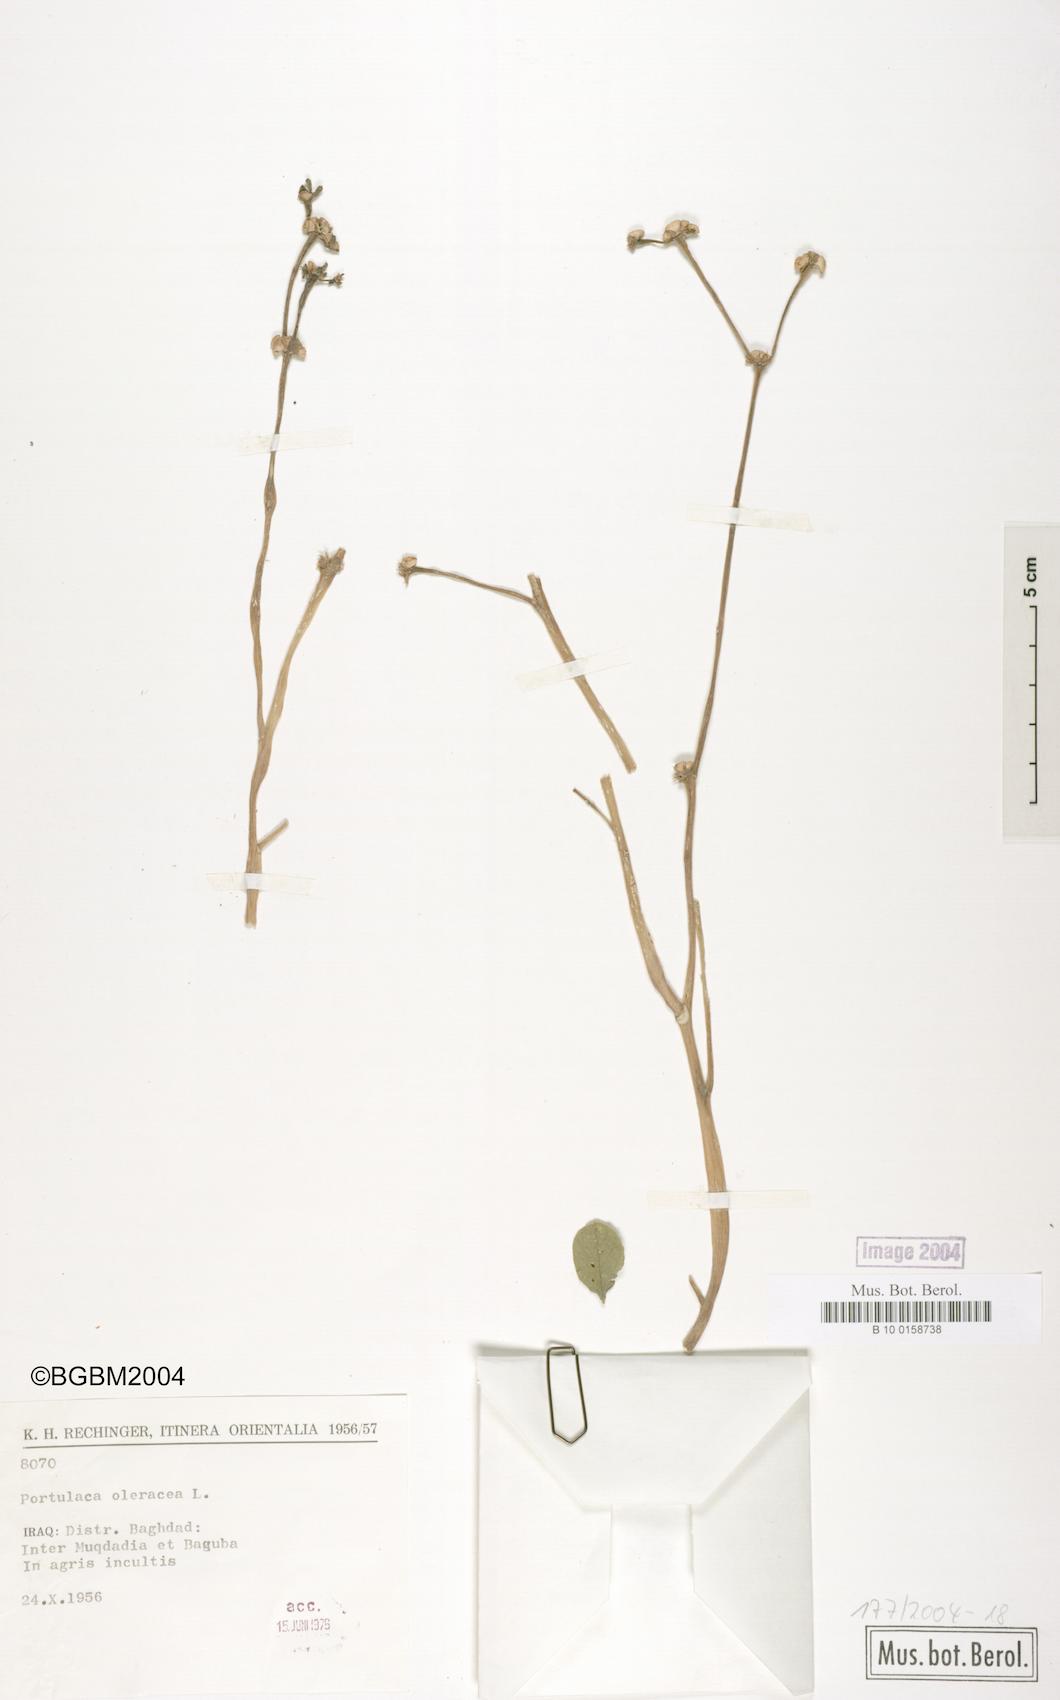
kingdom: Plantae
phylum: Tracheophyta
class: Magnoliopsida
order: Caryophyllales
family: Portulacaceae
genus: Portulaca
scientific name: Portulaca oleracea
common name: Common purslane
